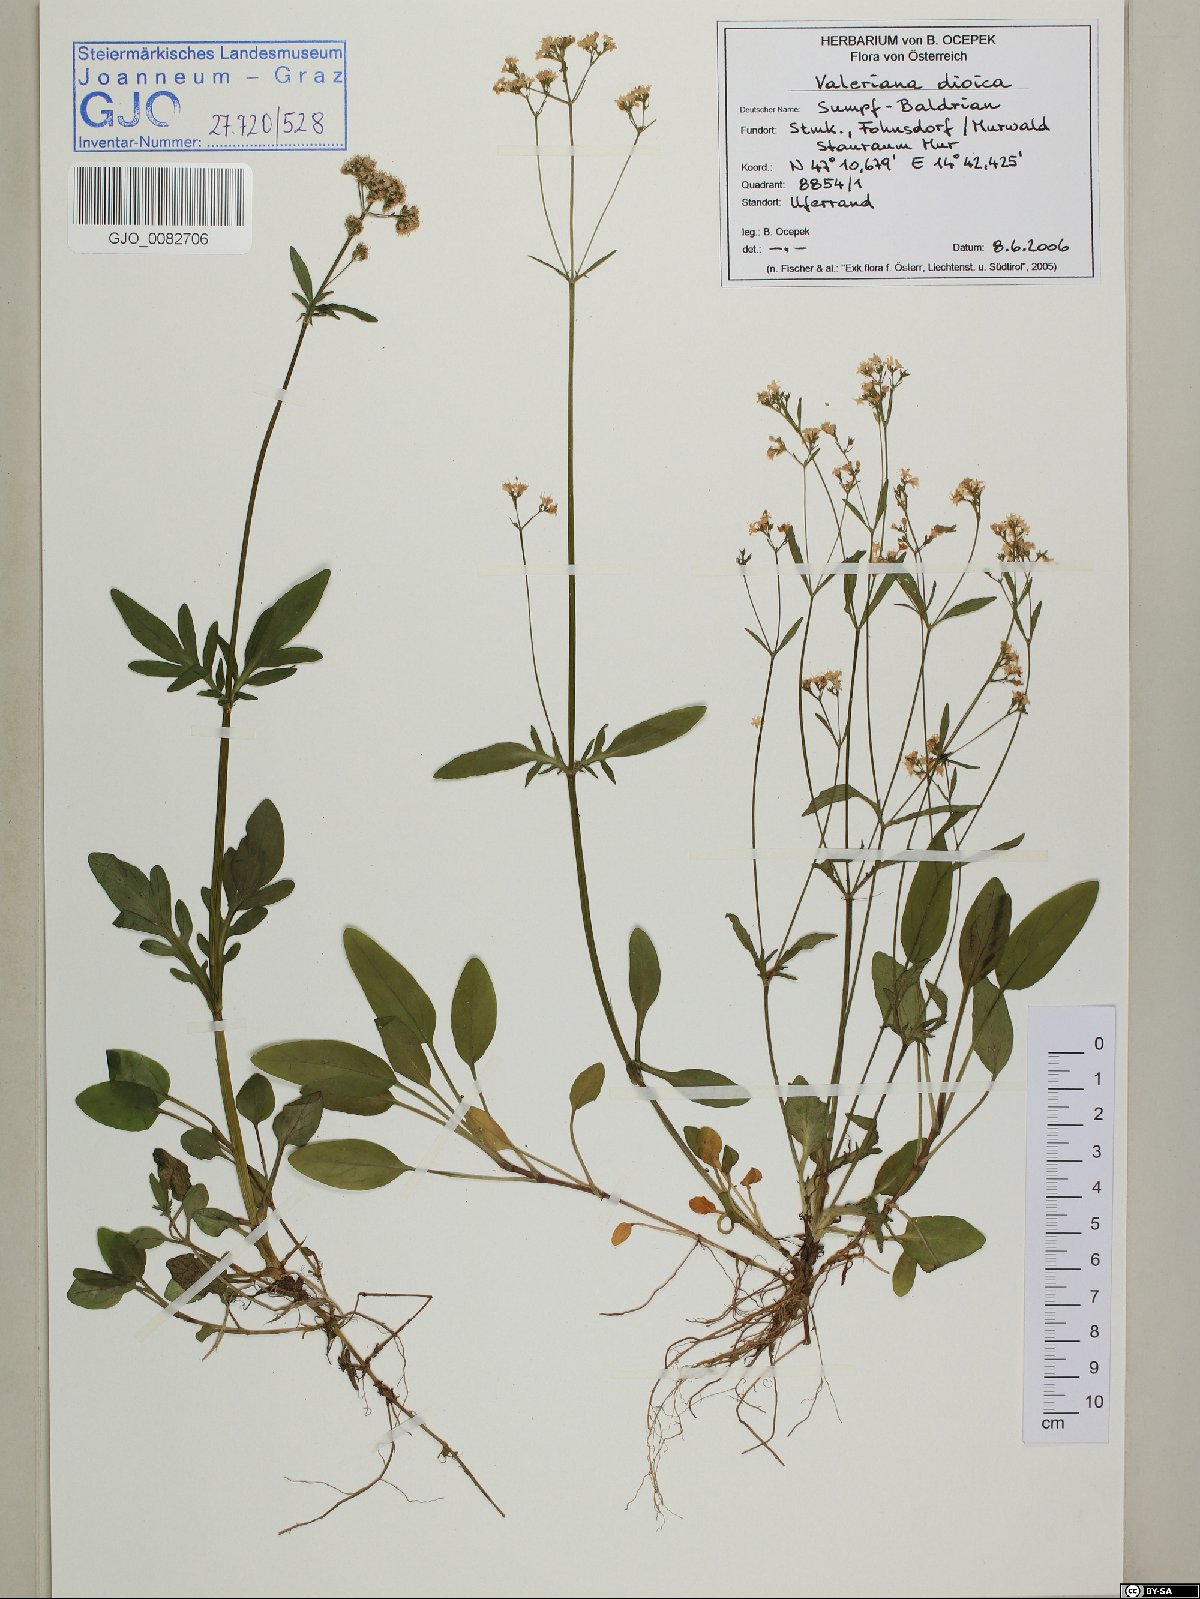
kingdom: Plantae
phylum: Tracheophyta
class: Magnoliopsida
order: Dipsacales
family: Caprifoliaceae
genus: Valeriana
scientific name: Valeriana dioica
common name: Marsh valerian
